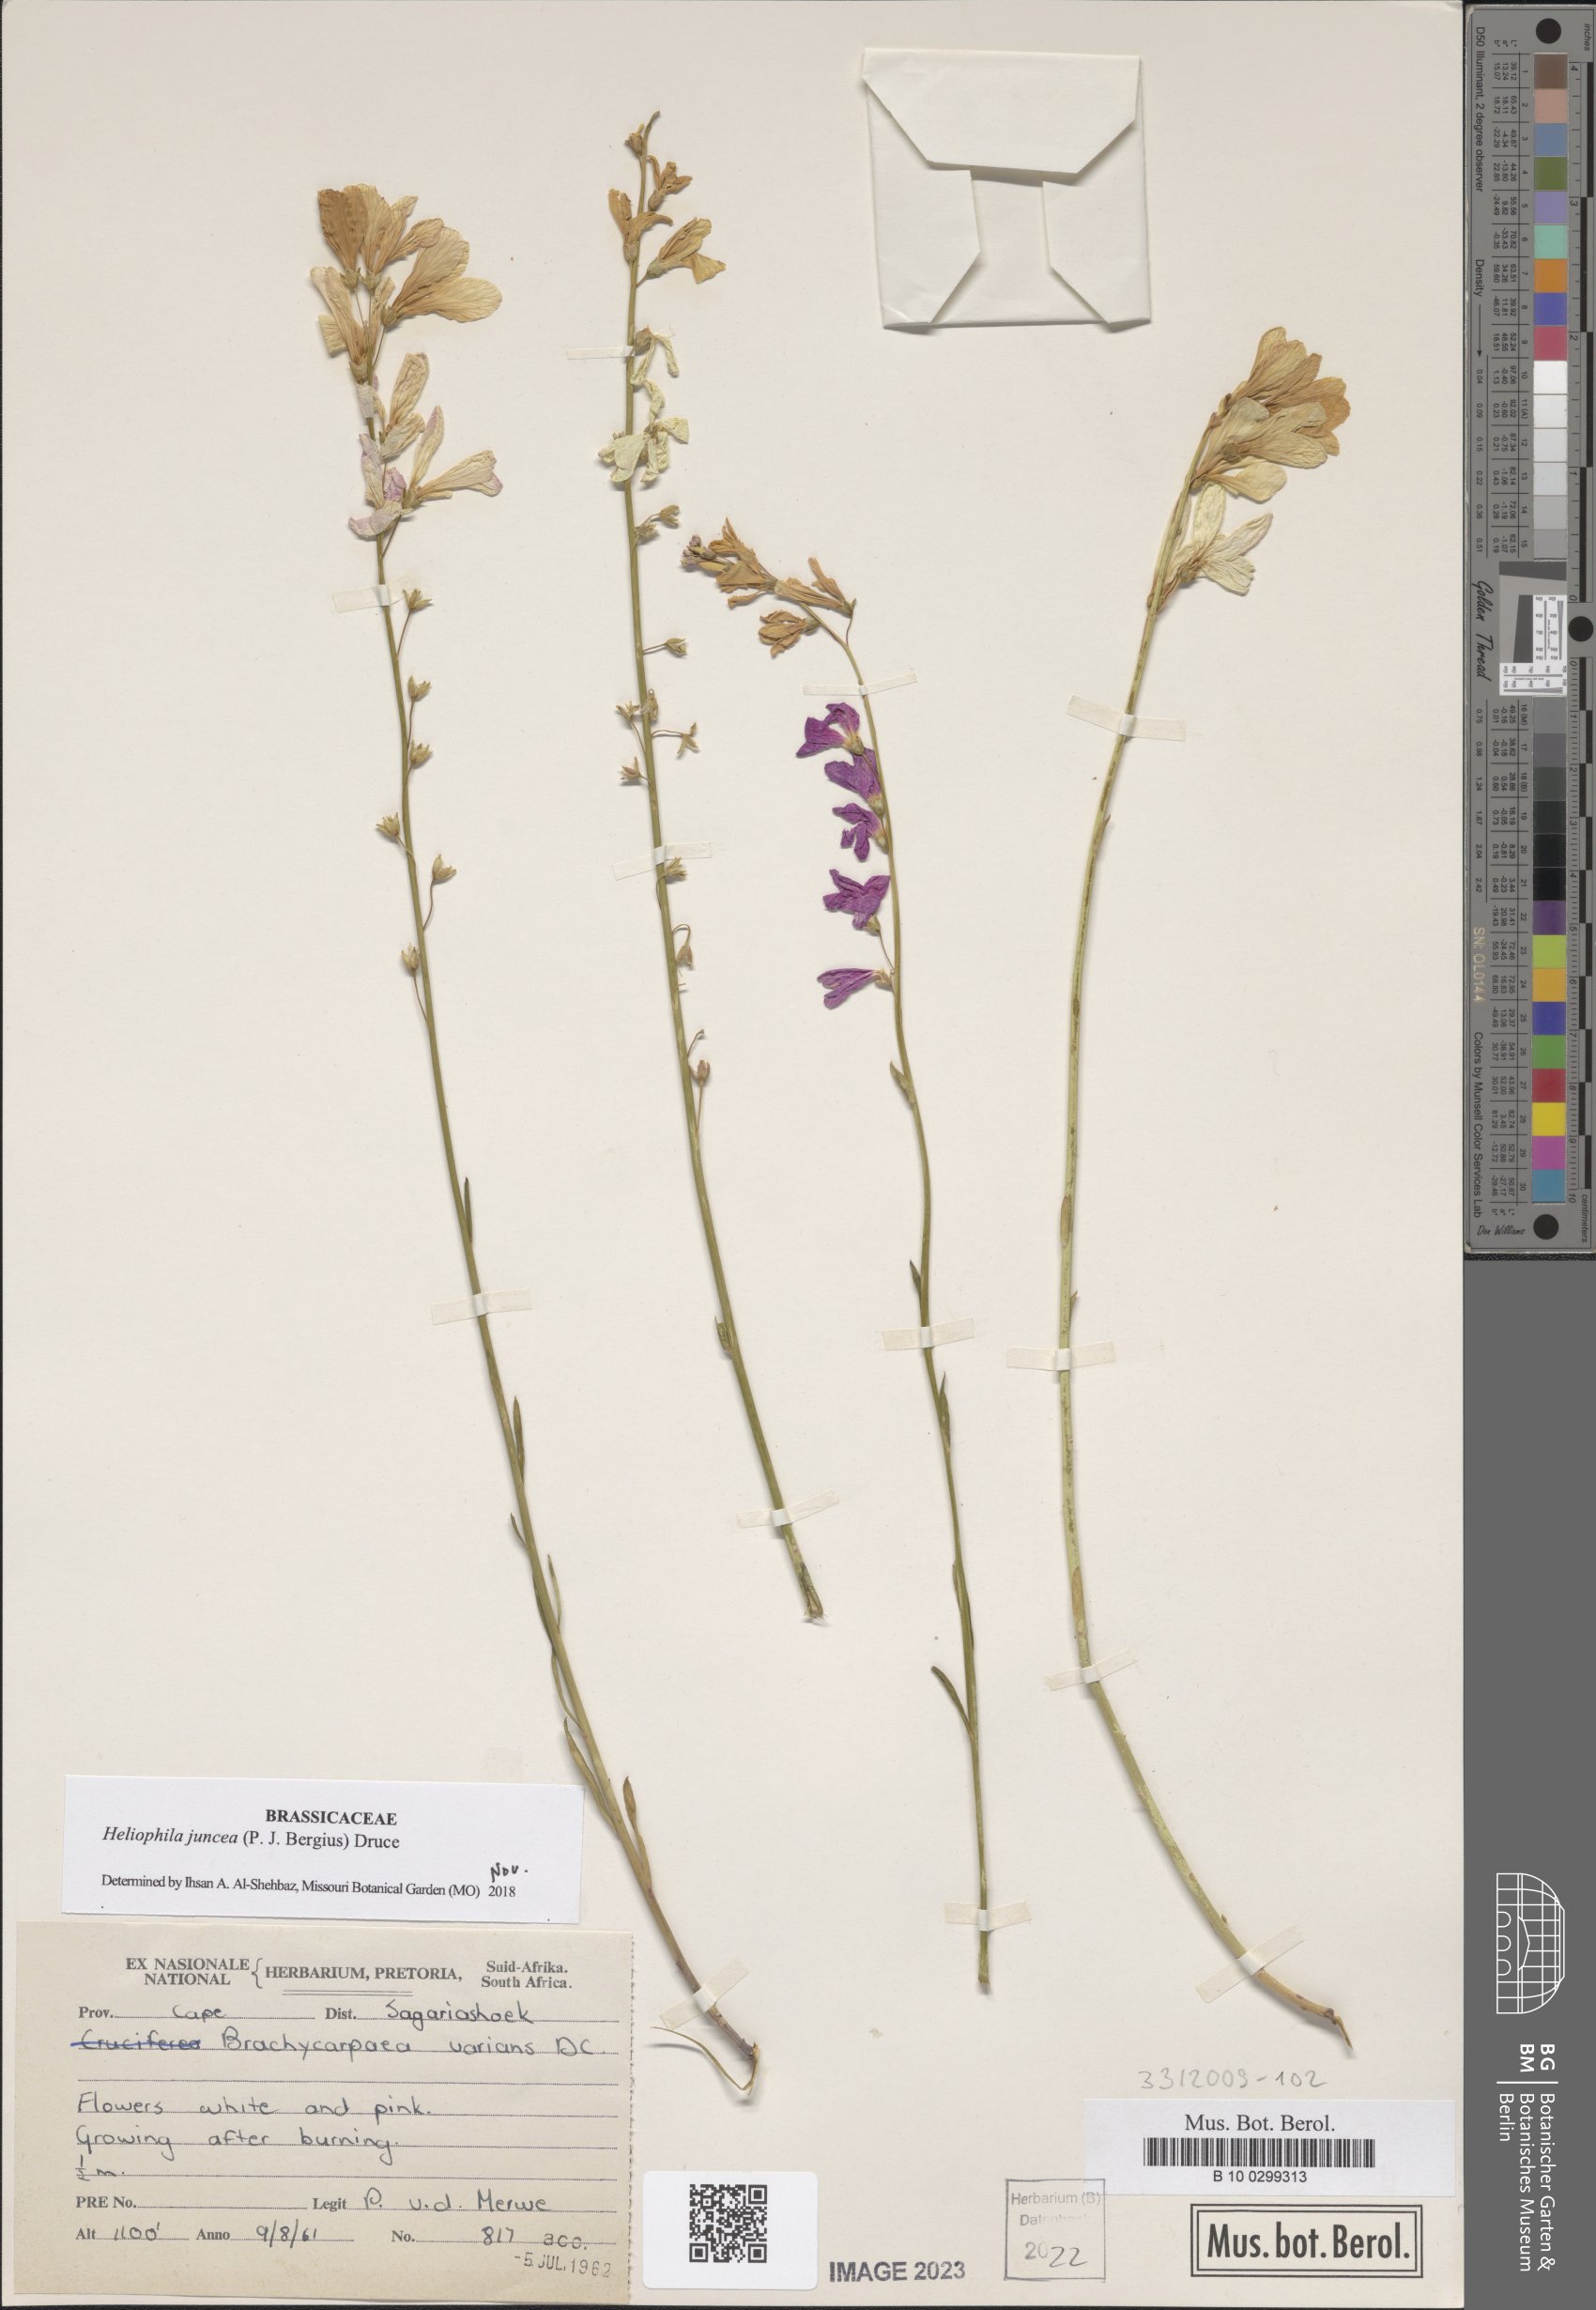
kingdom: Plantae
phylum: Tracheophyta
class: Magnoliopsida
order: Brassicales
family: Brassicaceae
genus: Heliophila
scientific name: Heliophila juncea
